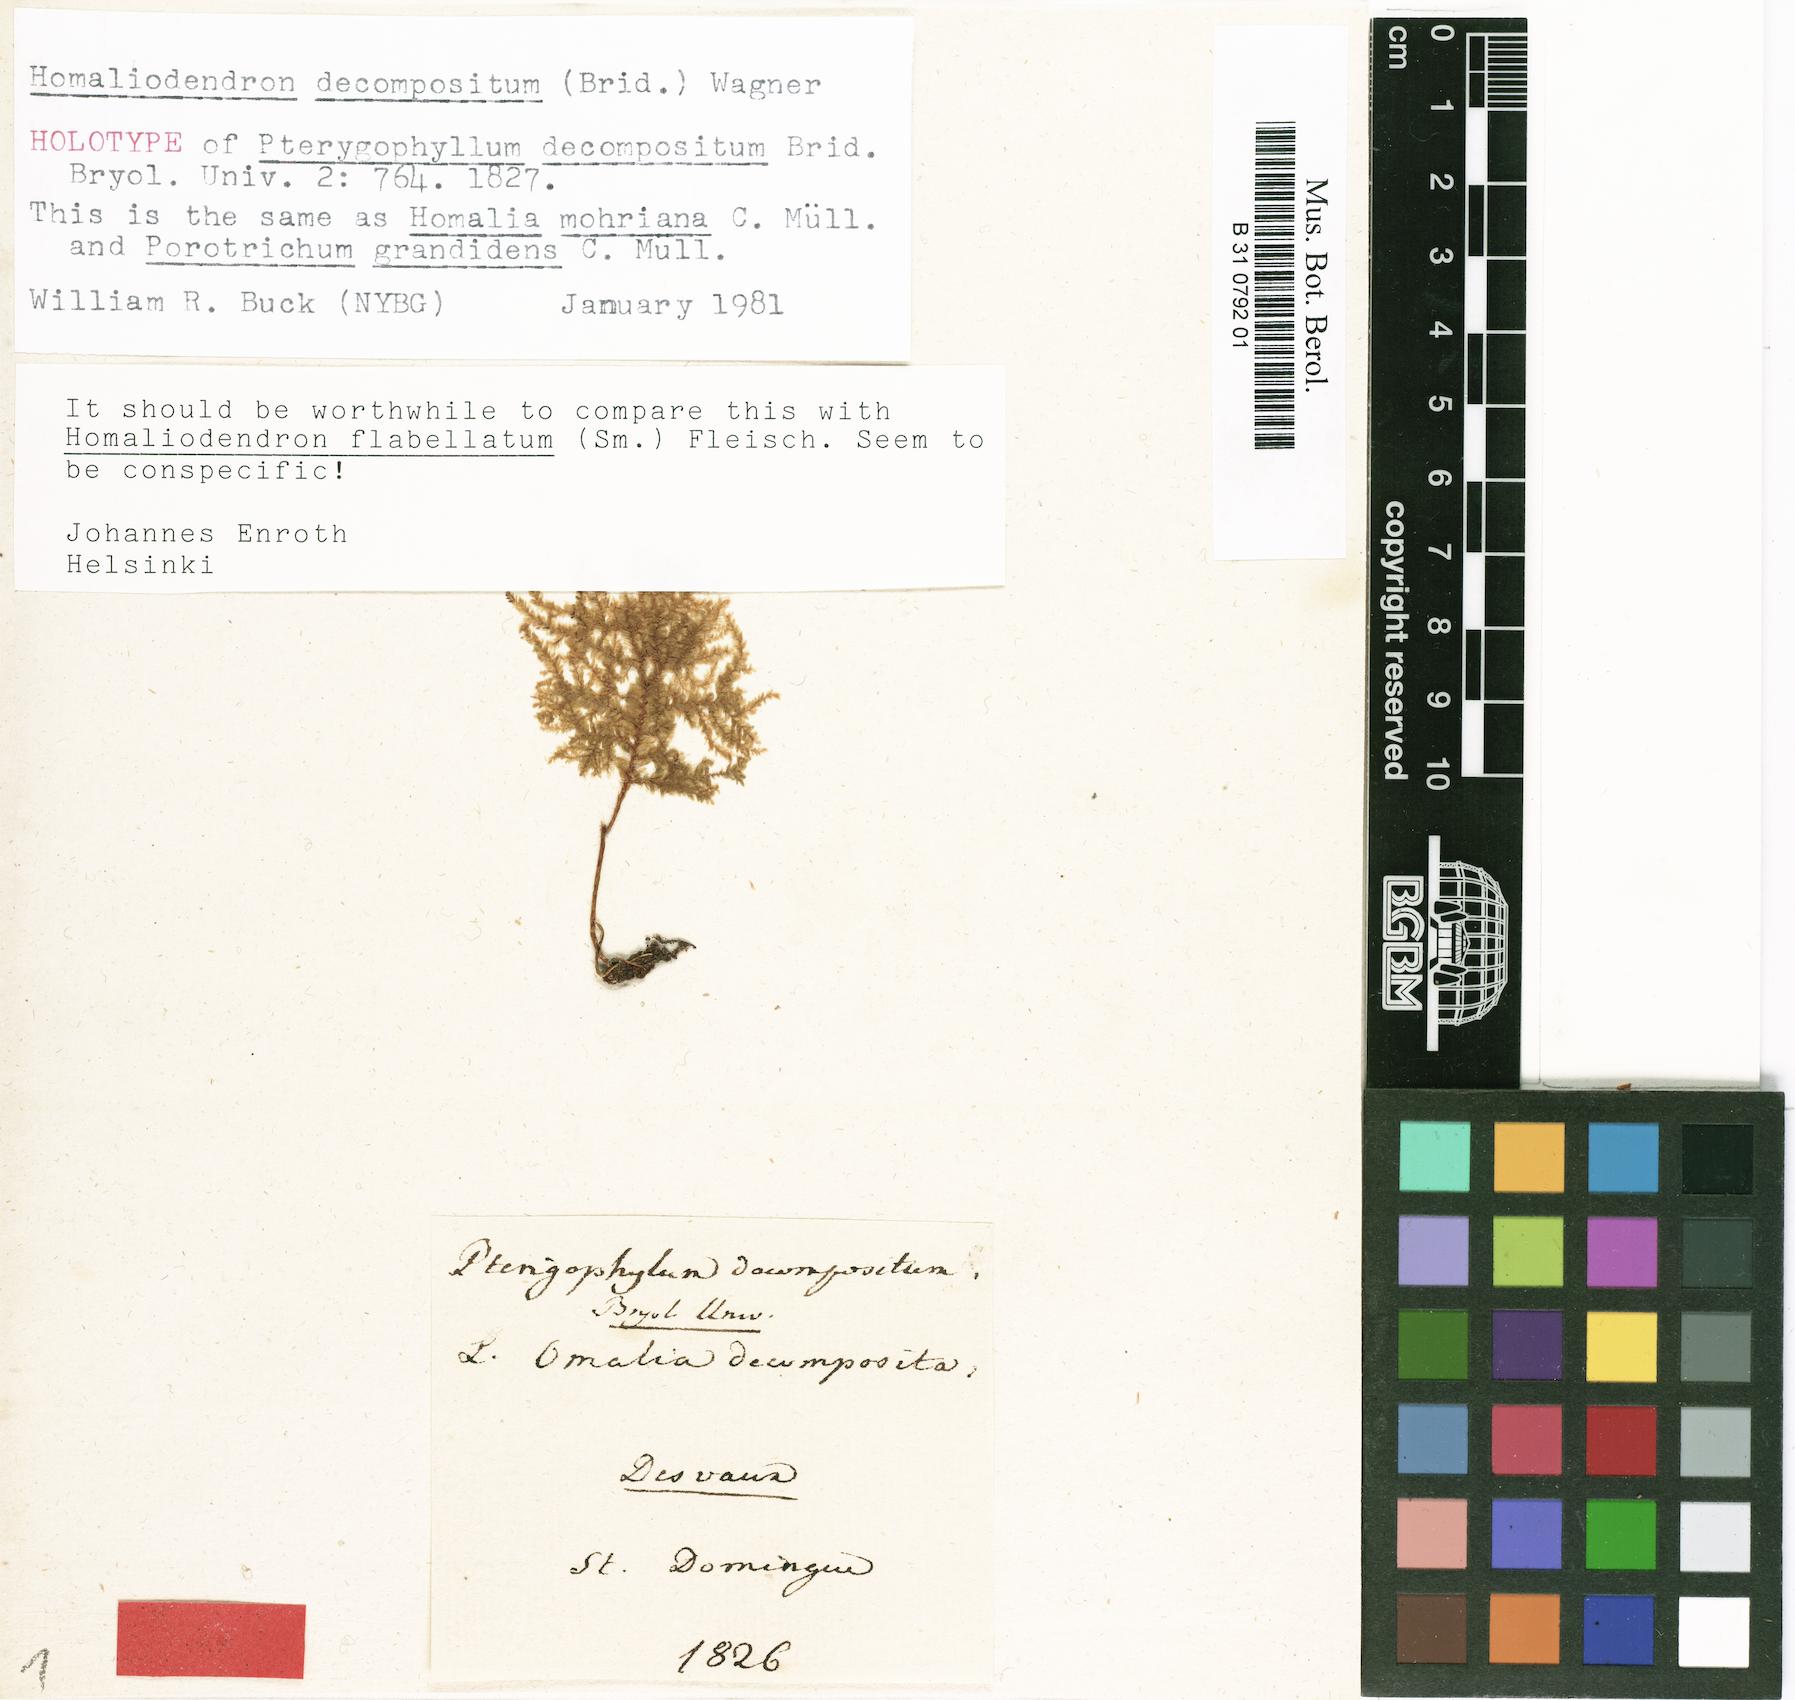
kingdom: Plantae
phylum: Bryophyta
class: Bryopsida
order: Hypnales
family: Neckeraceae
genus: Homaliodendron
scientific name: Homaliodendron flabellatum
